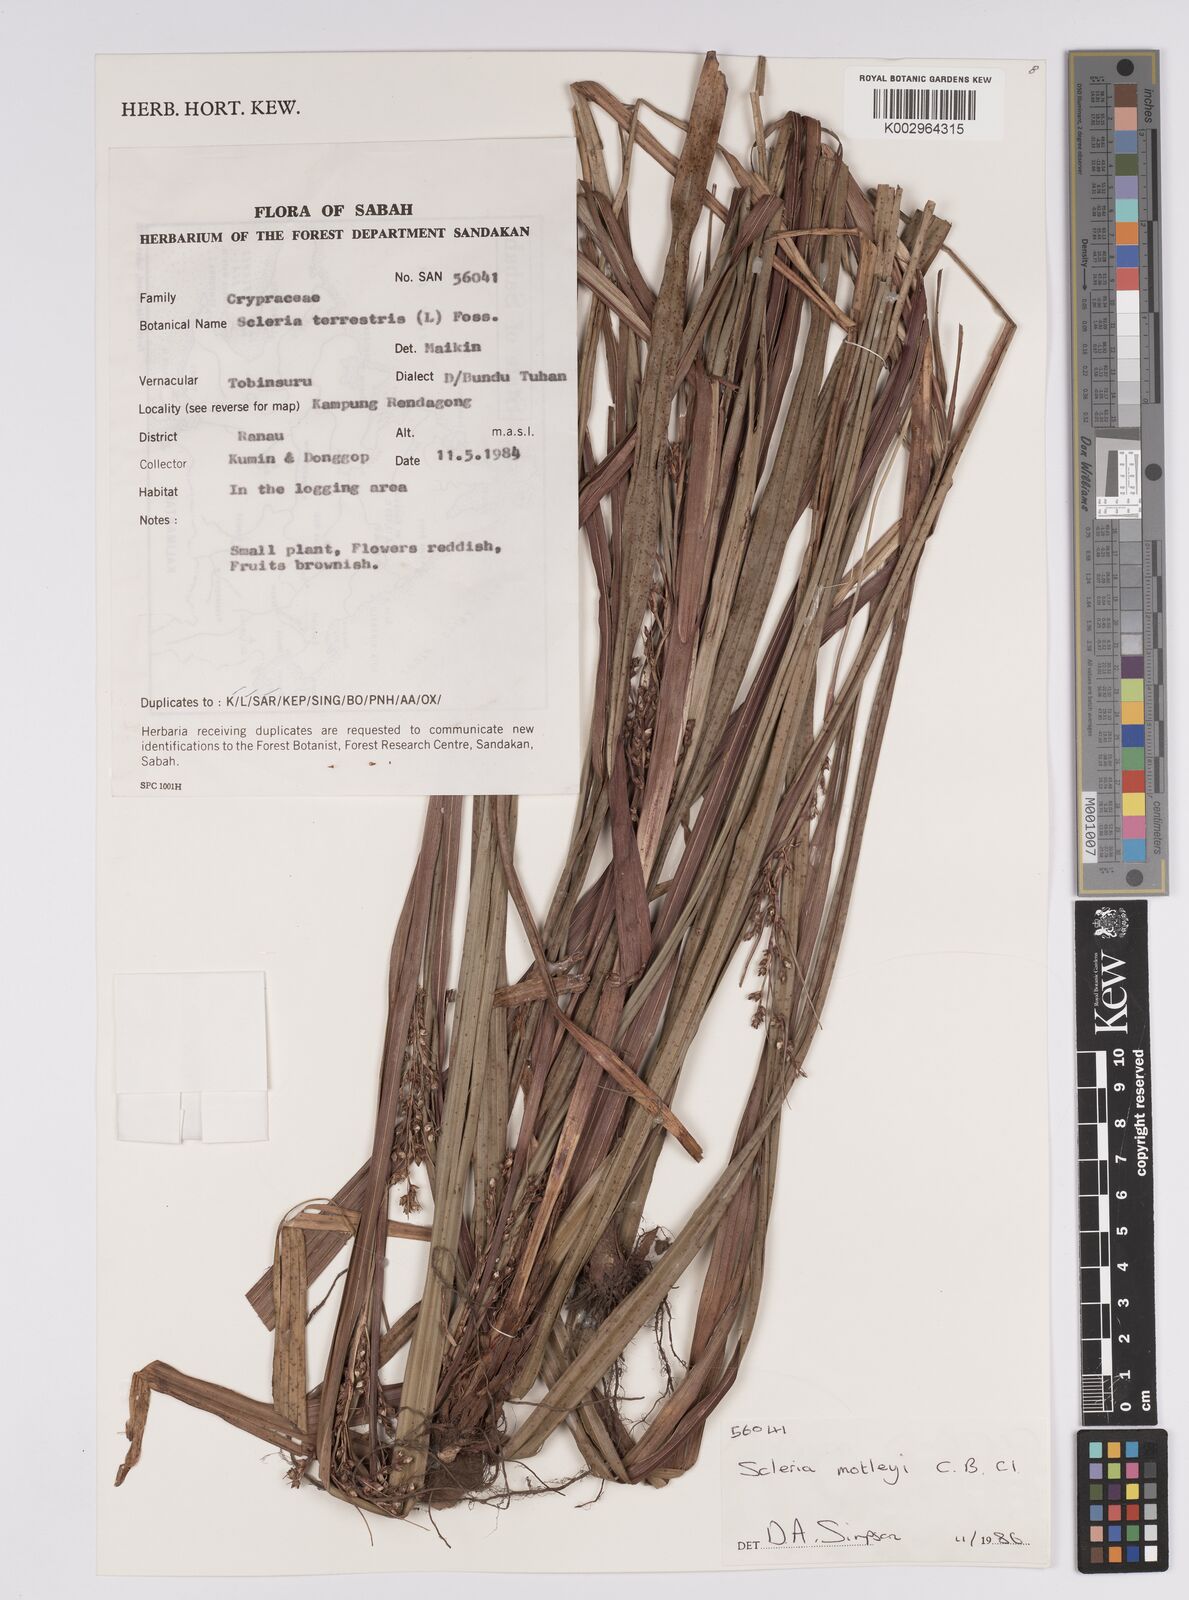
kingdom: Plantae
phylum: Tracheophyta
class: Liliopsida
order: Poales
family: Cyperaceae
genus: Scleria
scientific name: Scleria motleyi
